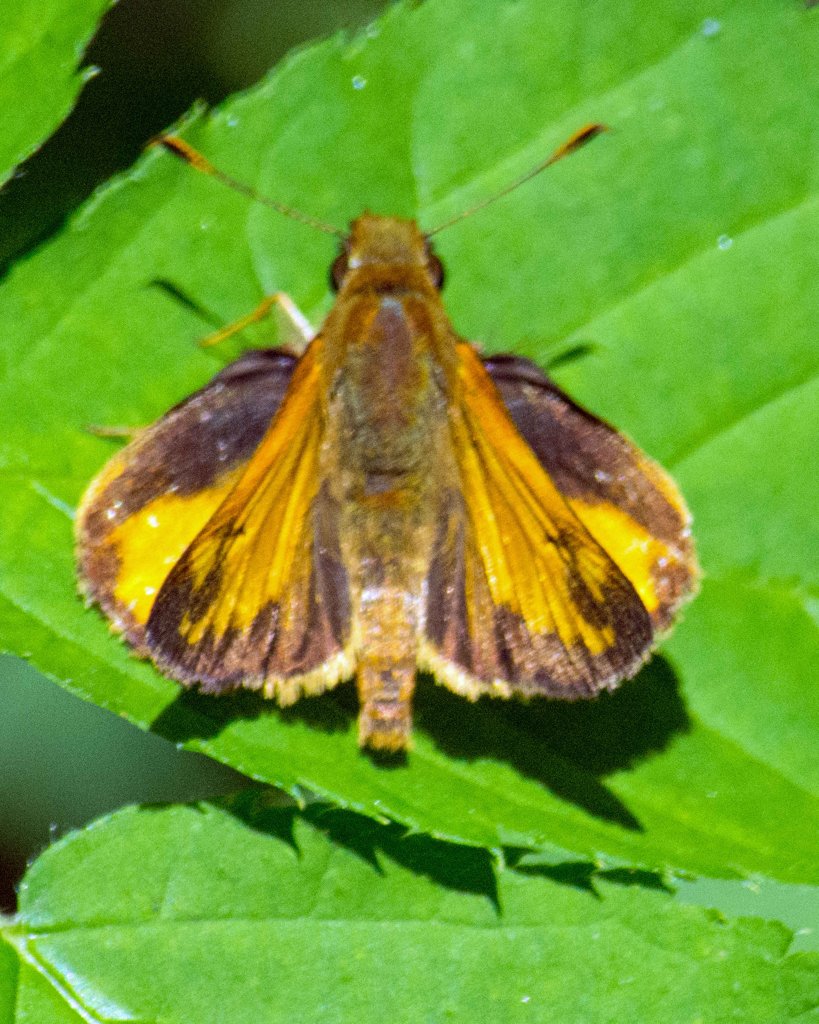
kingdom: Animalia
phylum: Arthropoda
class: Insecta
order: Lepidoptera
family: Hesperiidae
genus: Lon
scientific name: Lon zabulon
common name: Zabulon Skipper
